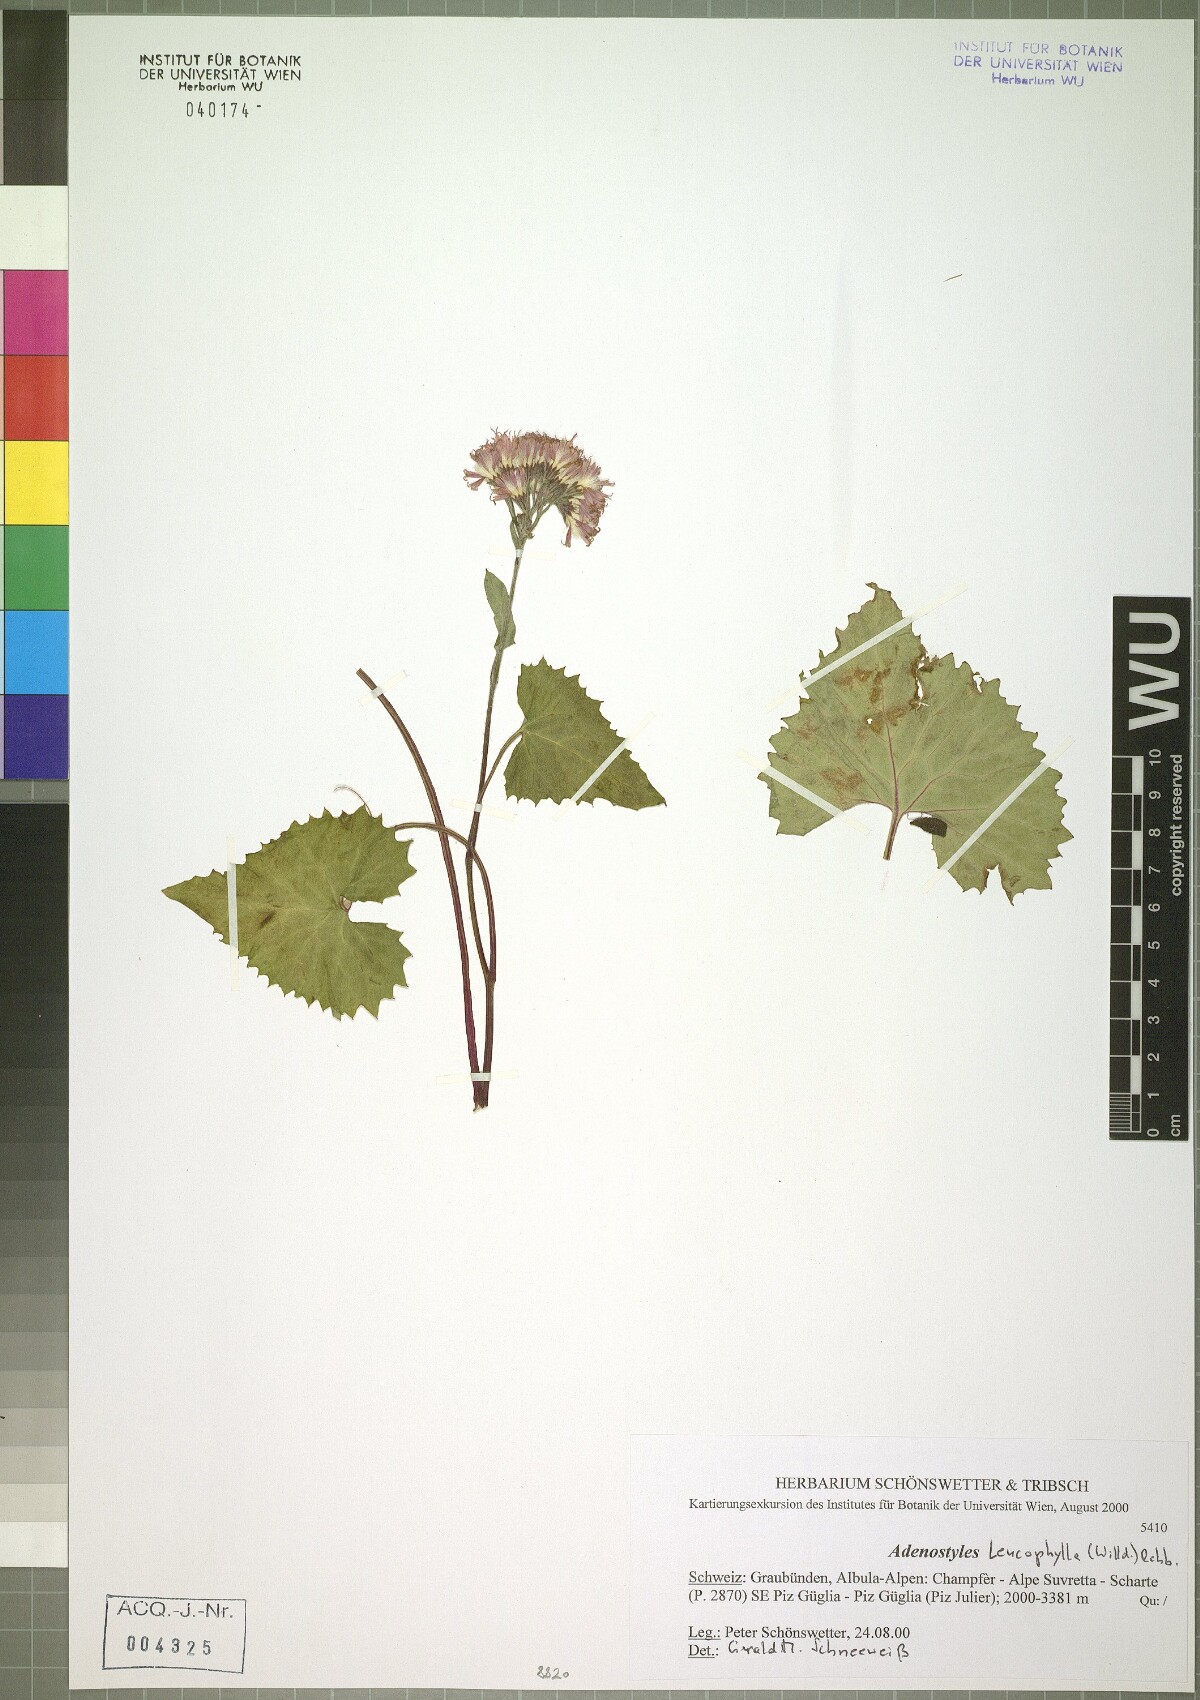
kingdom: Plantae
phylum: Tracheophyta
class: Magnoliopsida
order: Asterales
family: Asteraceae
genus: Adenostyles
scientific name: Adenostyles leucophylla
